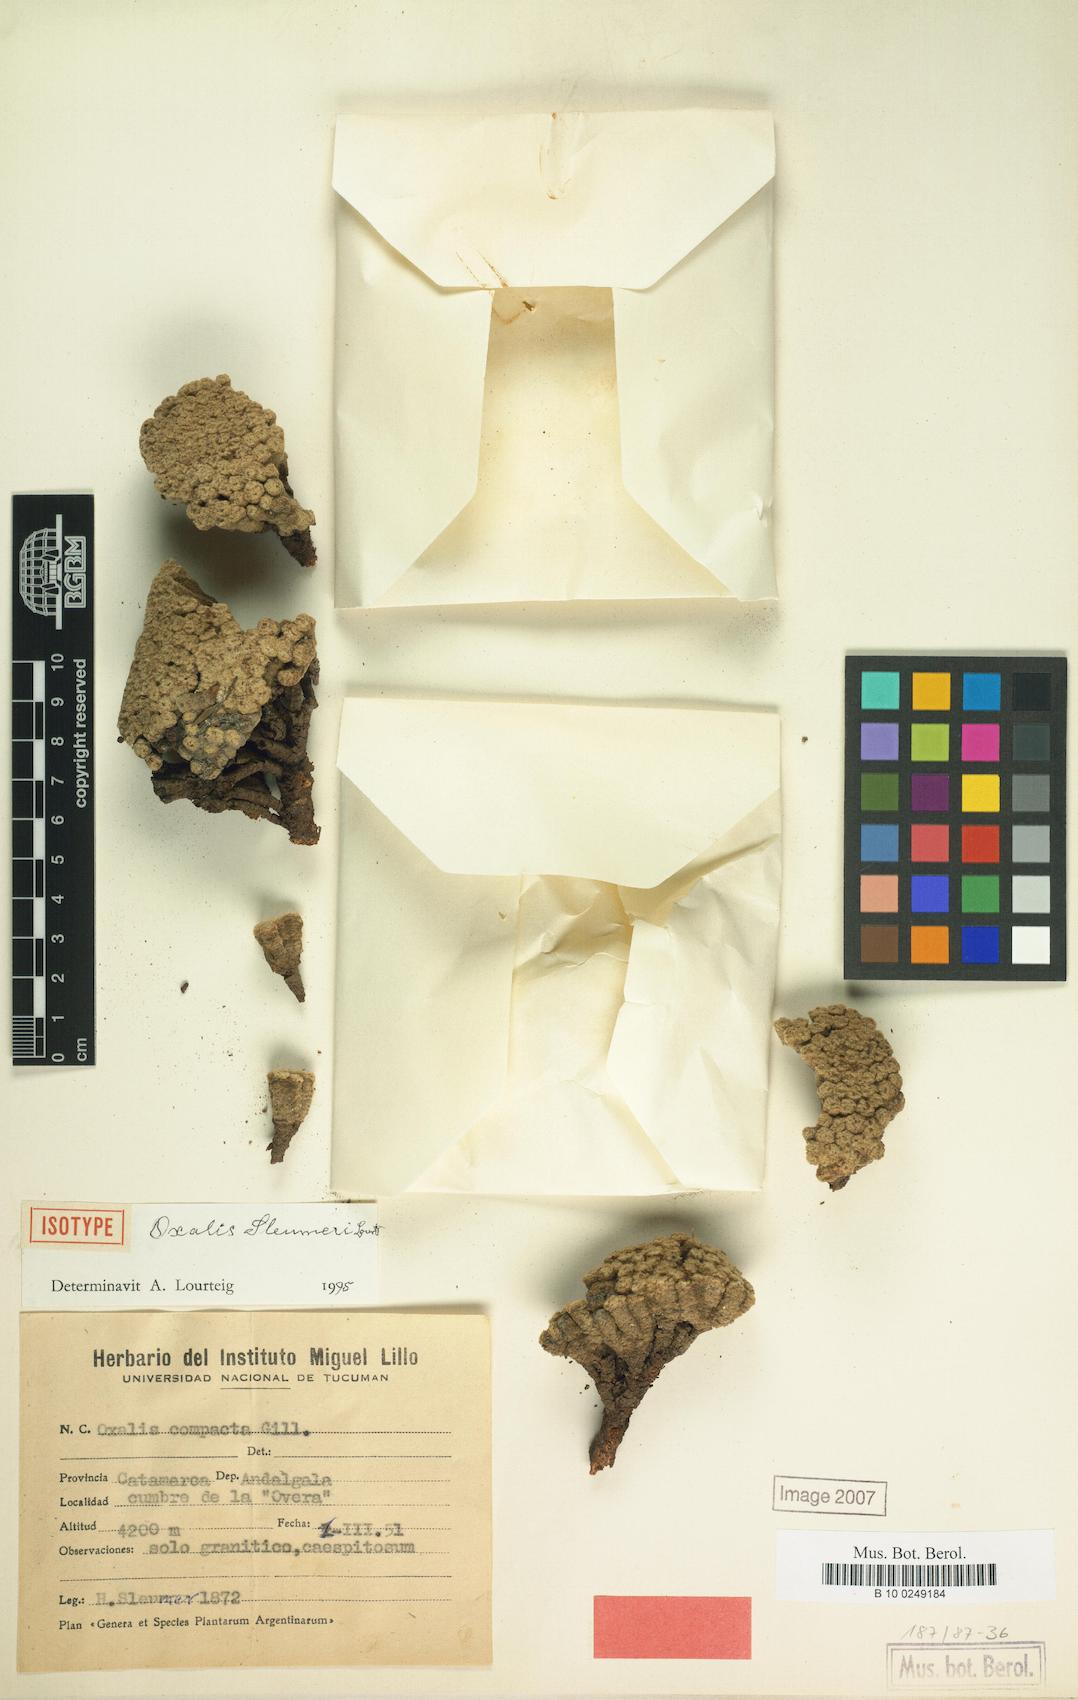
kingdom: Plantae
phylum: Tracheophyta
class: Magnoliopsida
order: Oxalidales
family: Oxalidaceae
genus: Oxalis
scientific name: Oxalis sleumeri
